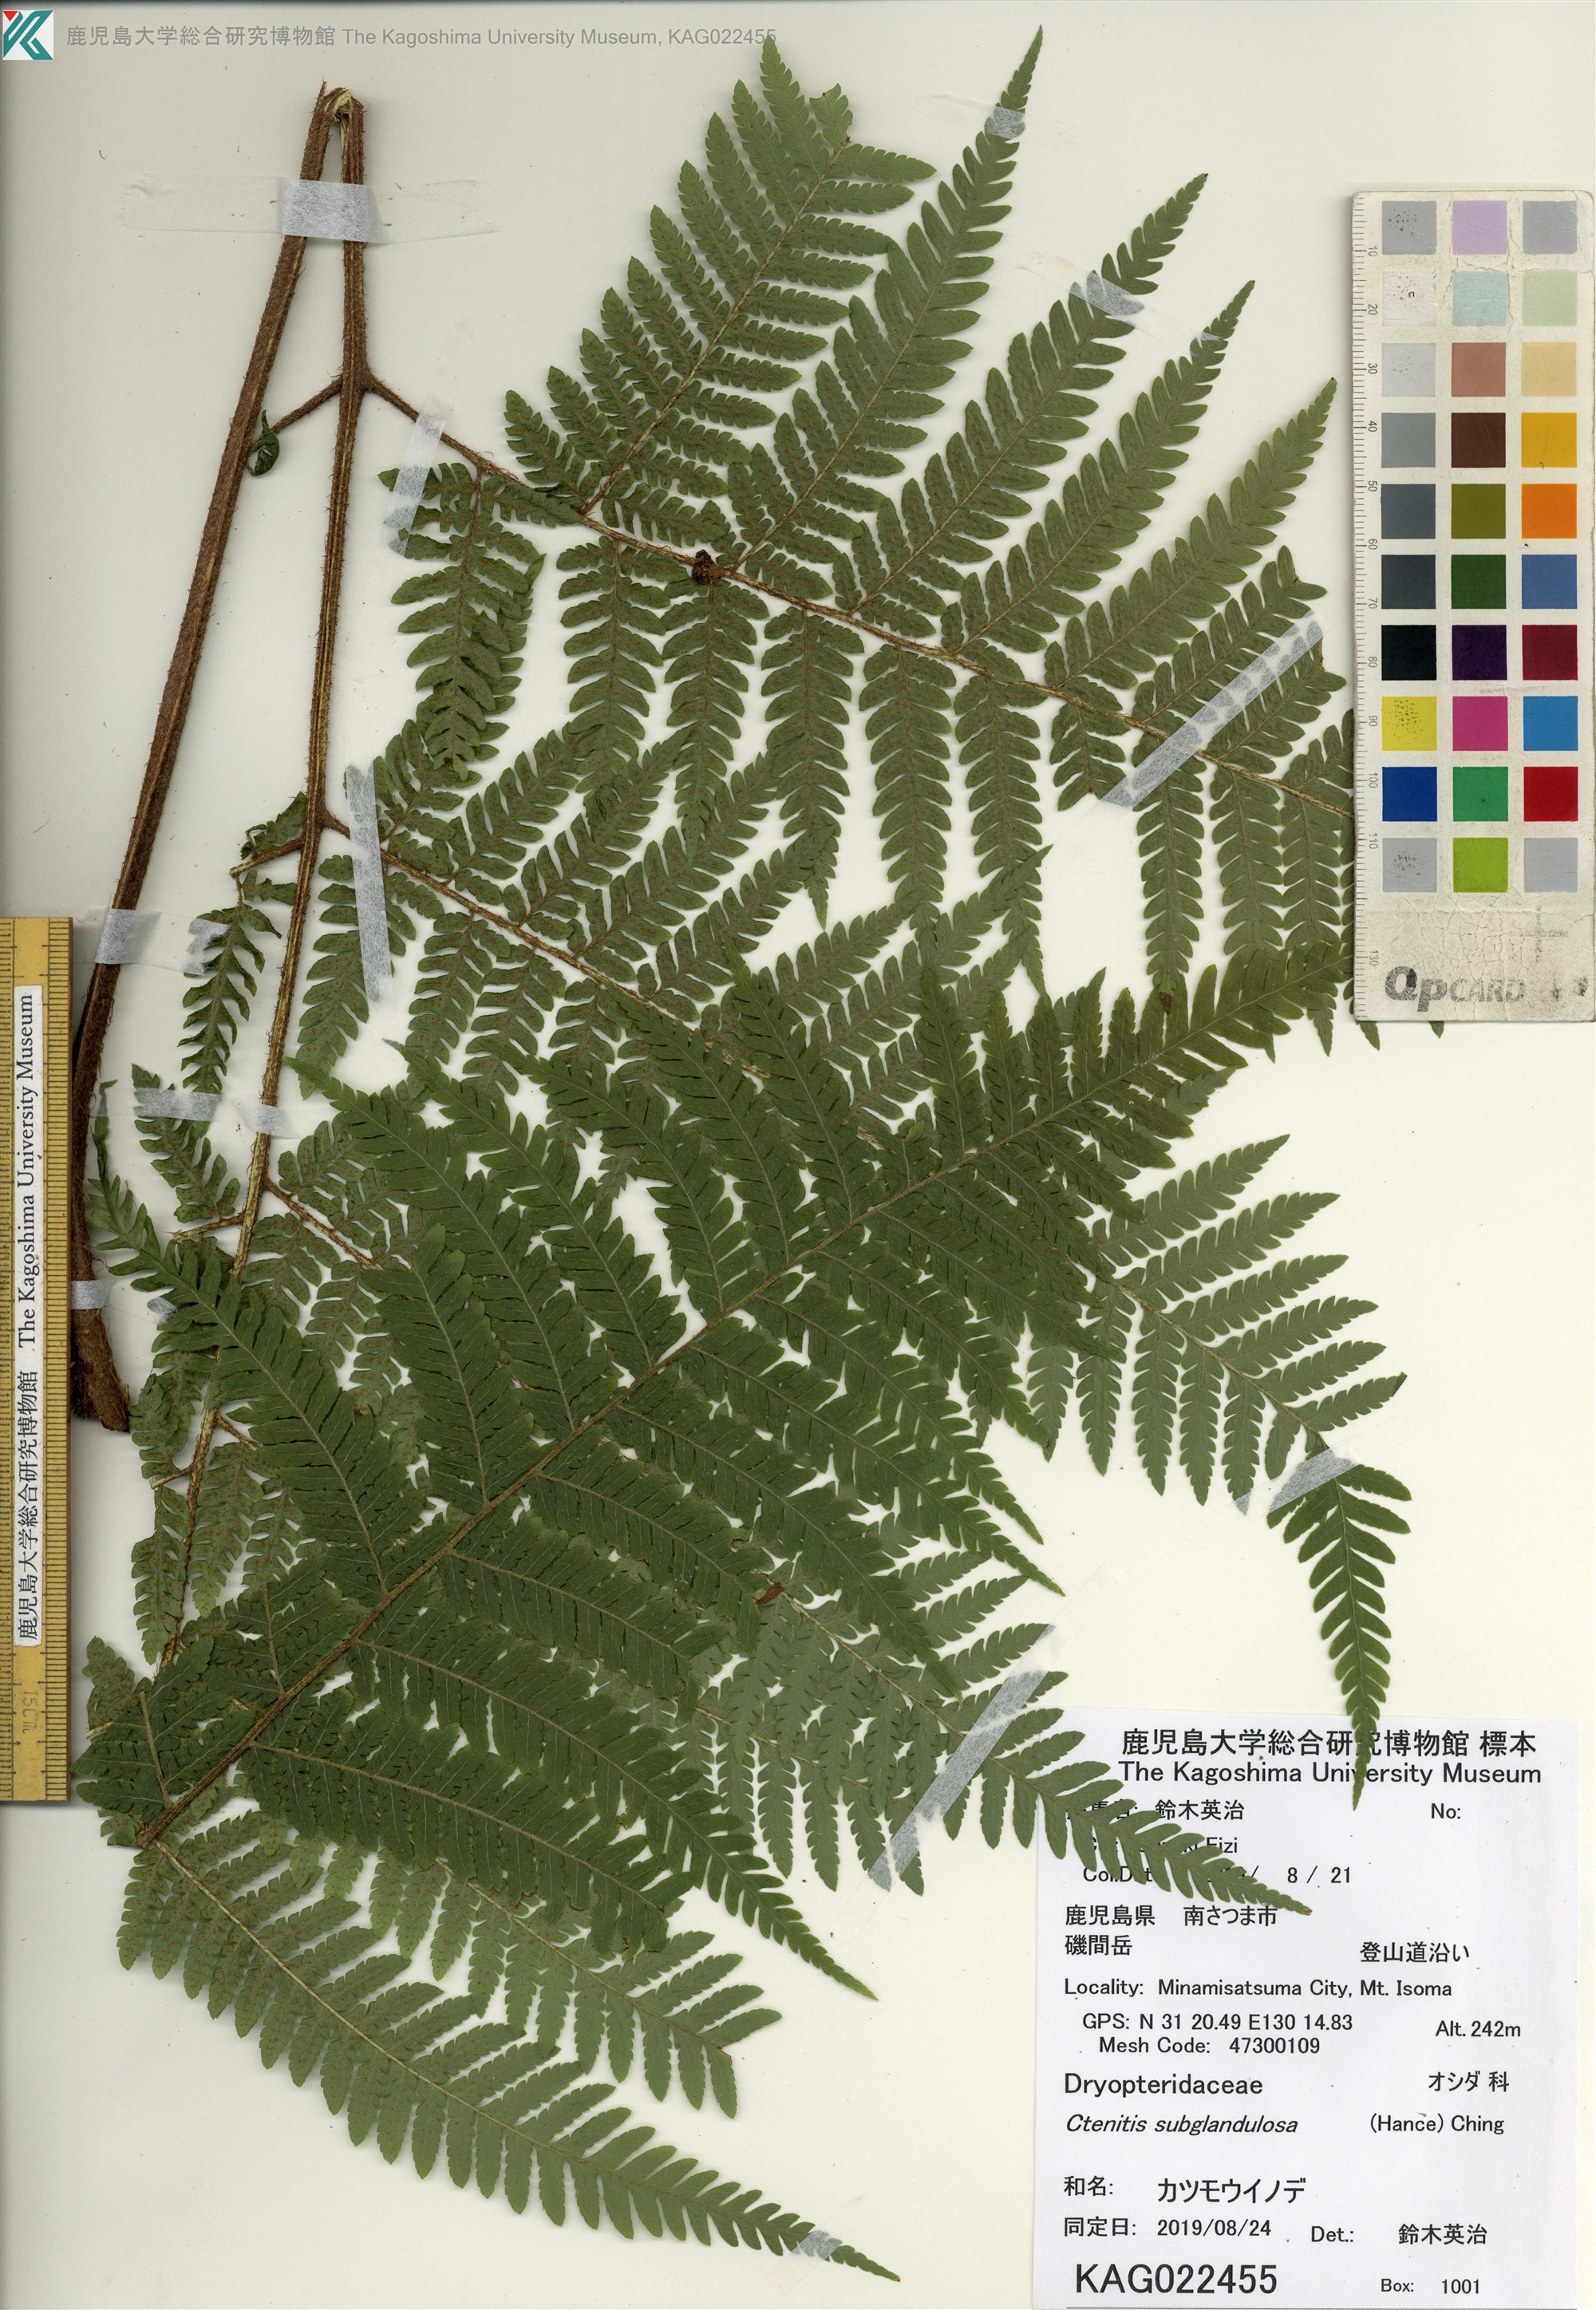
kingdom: Plantae
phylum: Tracheophyta
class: Polypodiopsida
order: Polypodiales
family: Dryopteridaceae
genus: Ctenitis
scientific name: Ctenitis subglandulosa
